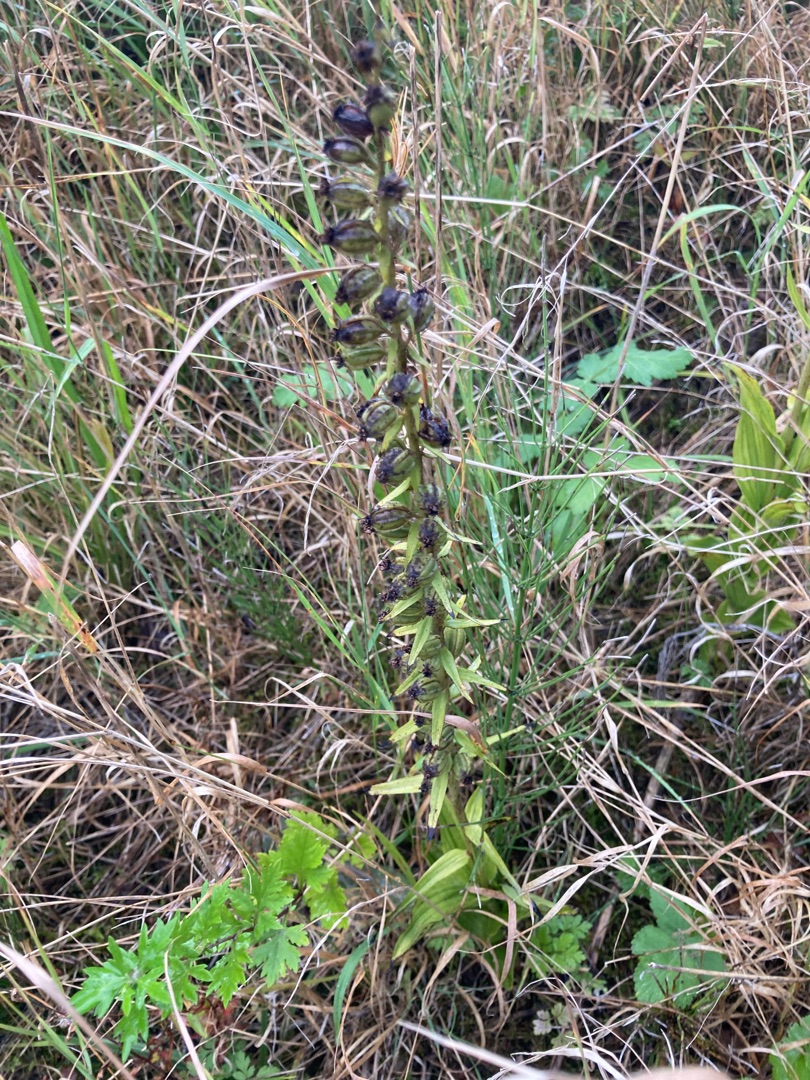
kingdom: Plantae
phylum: Tracheophyta
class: Liliopsida
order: Asparagales
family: Orchidaceae
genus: Epipactis
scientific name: Epipactis helleborine
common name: Skov-hullæbe (underart)
